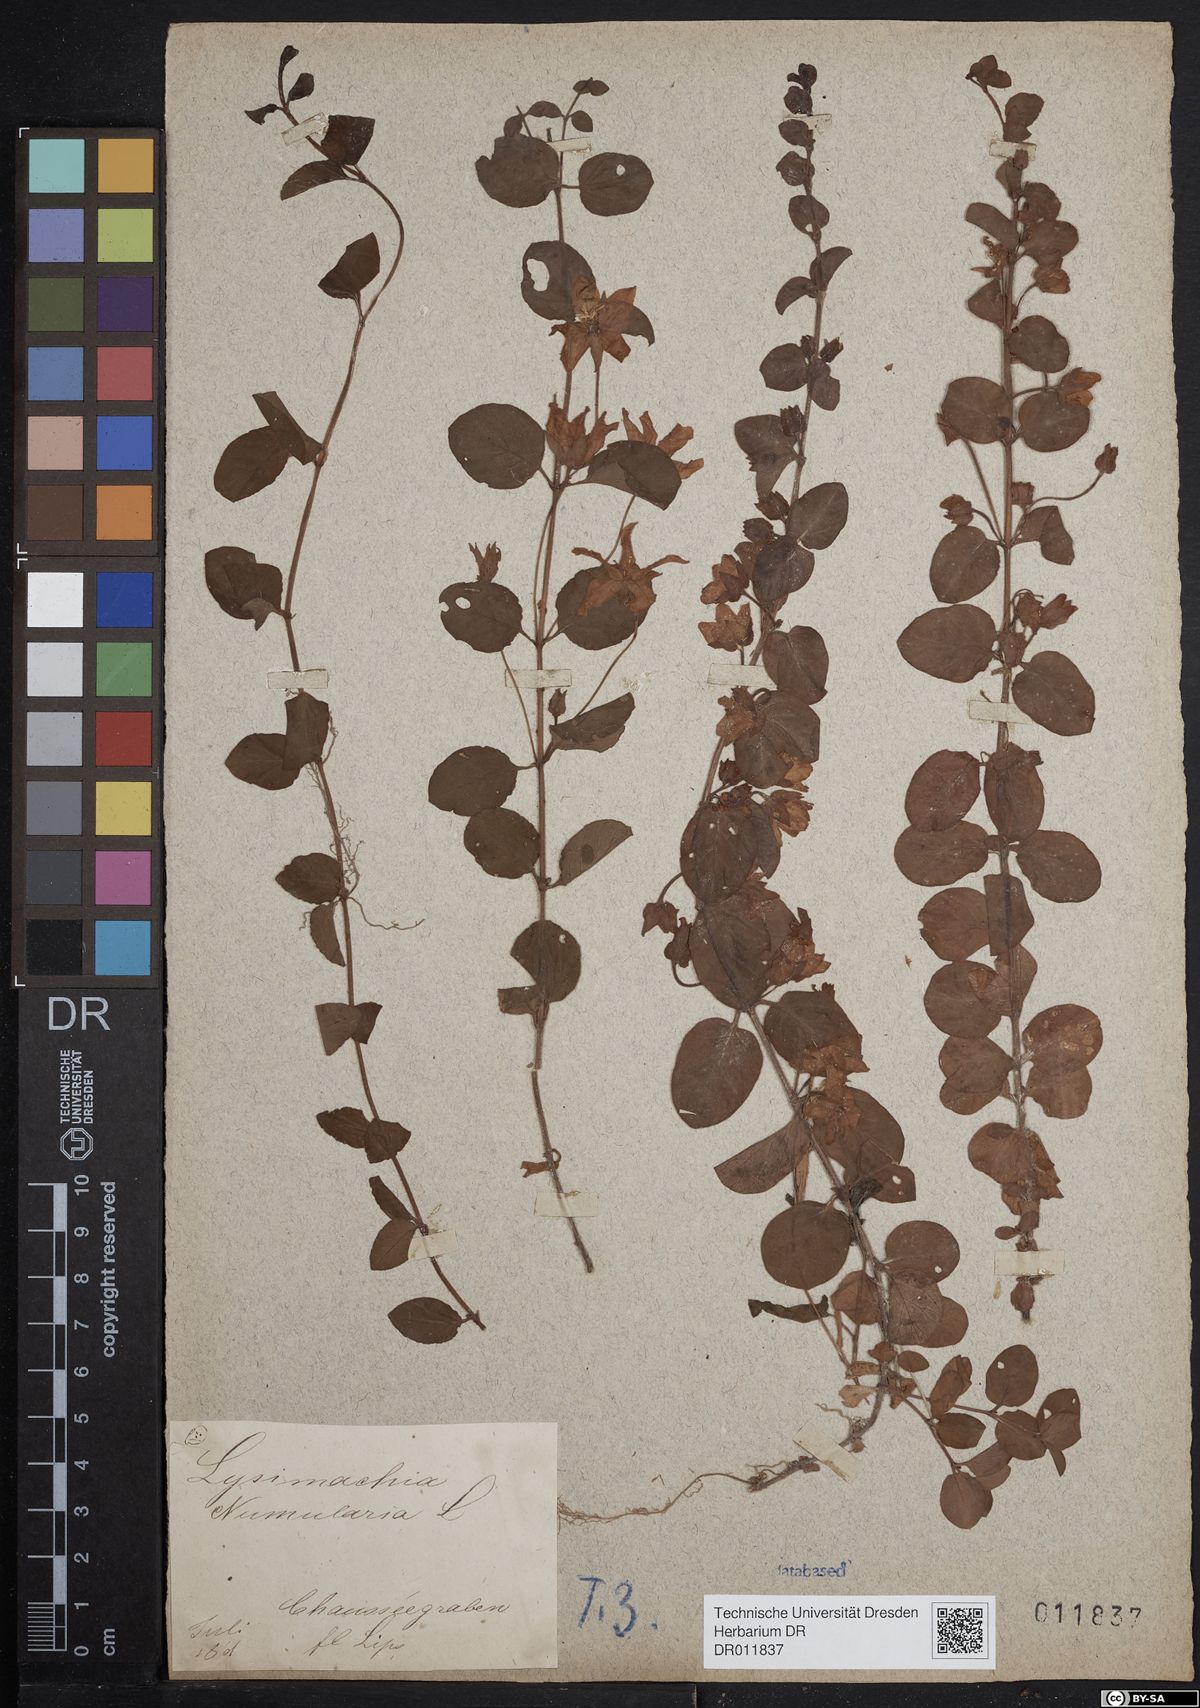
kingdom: Plantae
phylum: Tracheophyta
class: Magnoliopsida
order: Ericales
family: Primulaceae
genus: Lysimachia
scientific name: Lysimachia nummularia
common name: Moneywort
